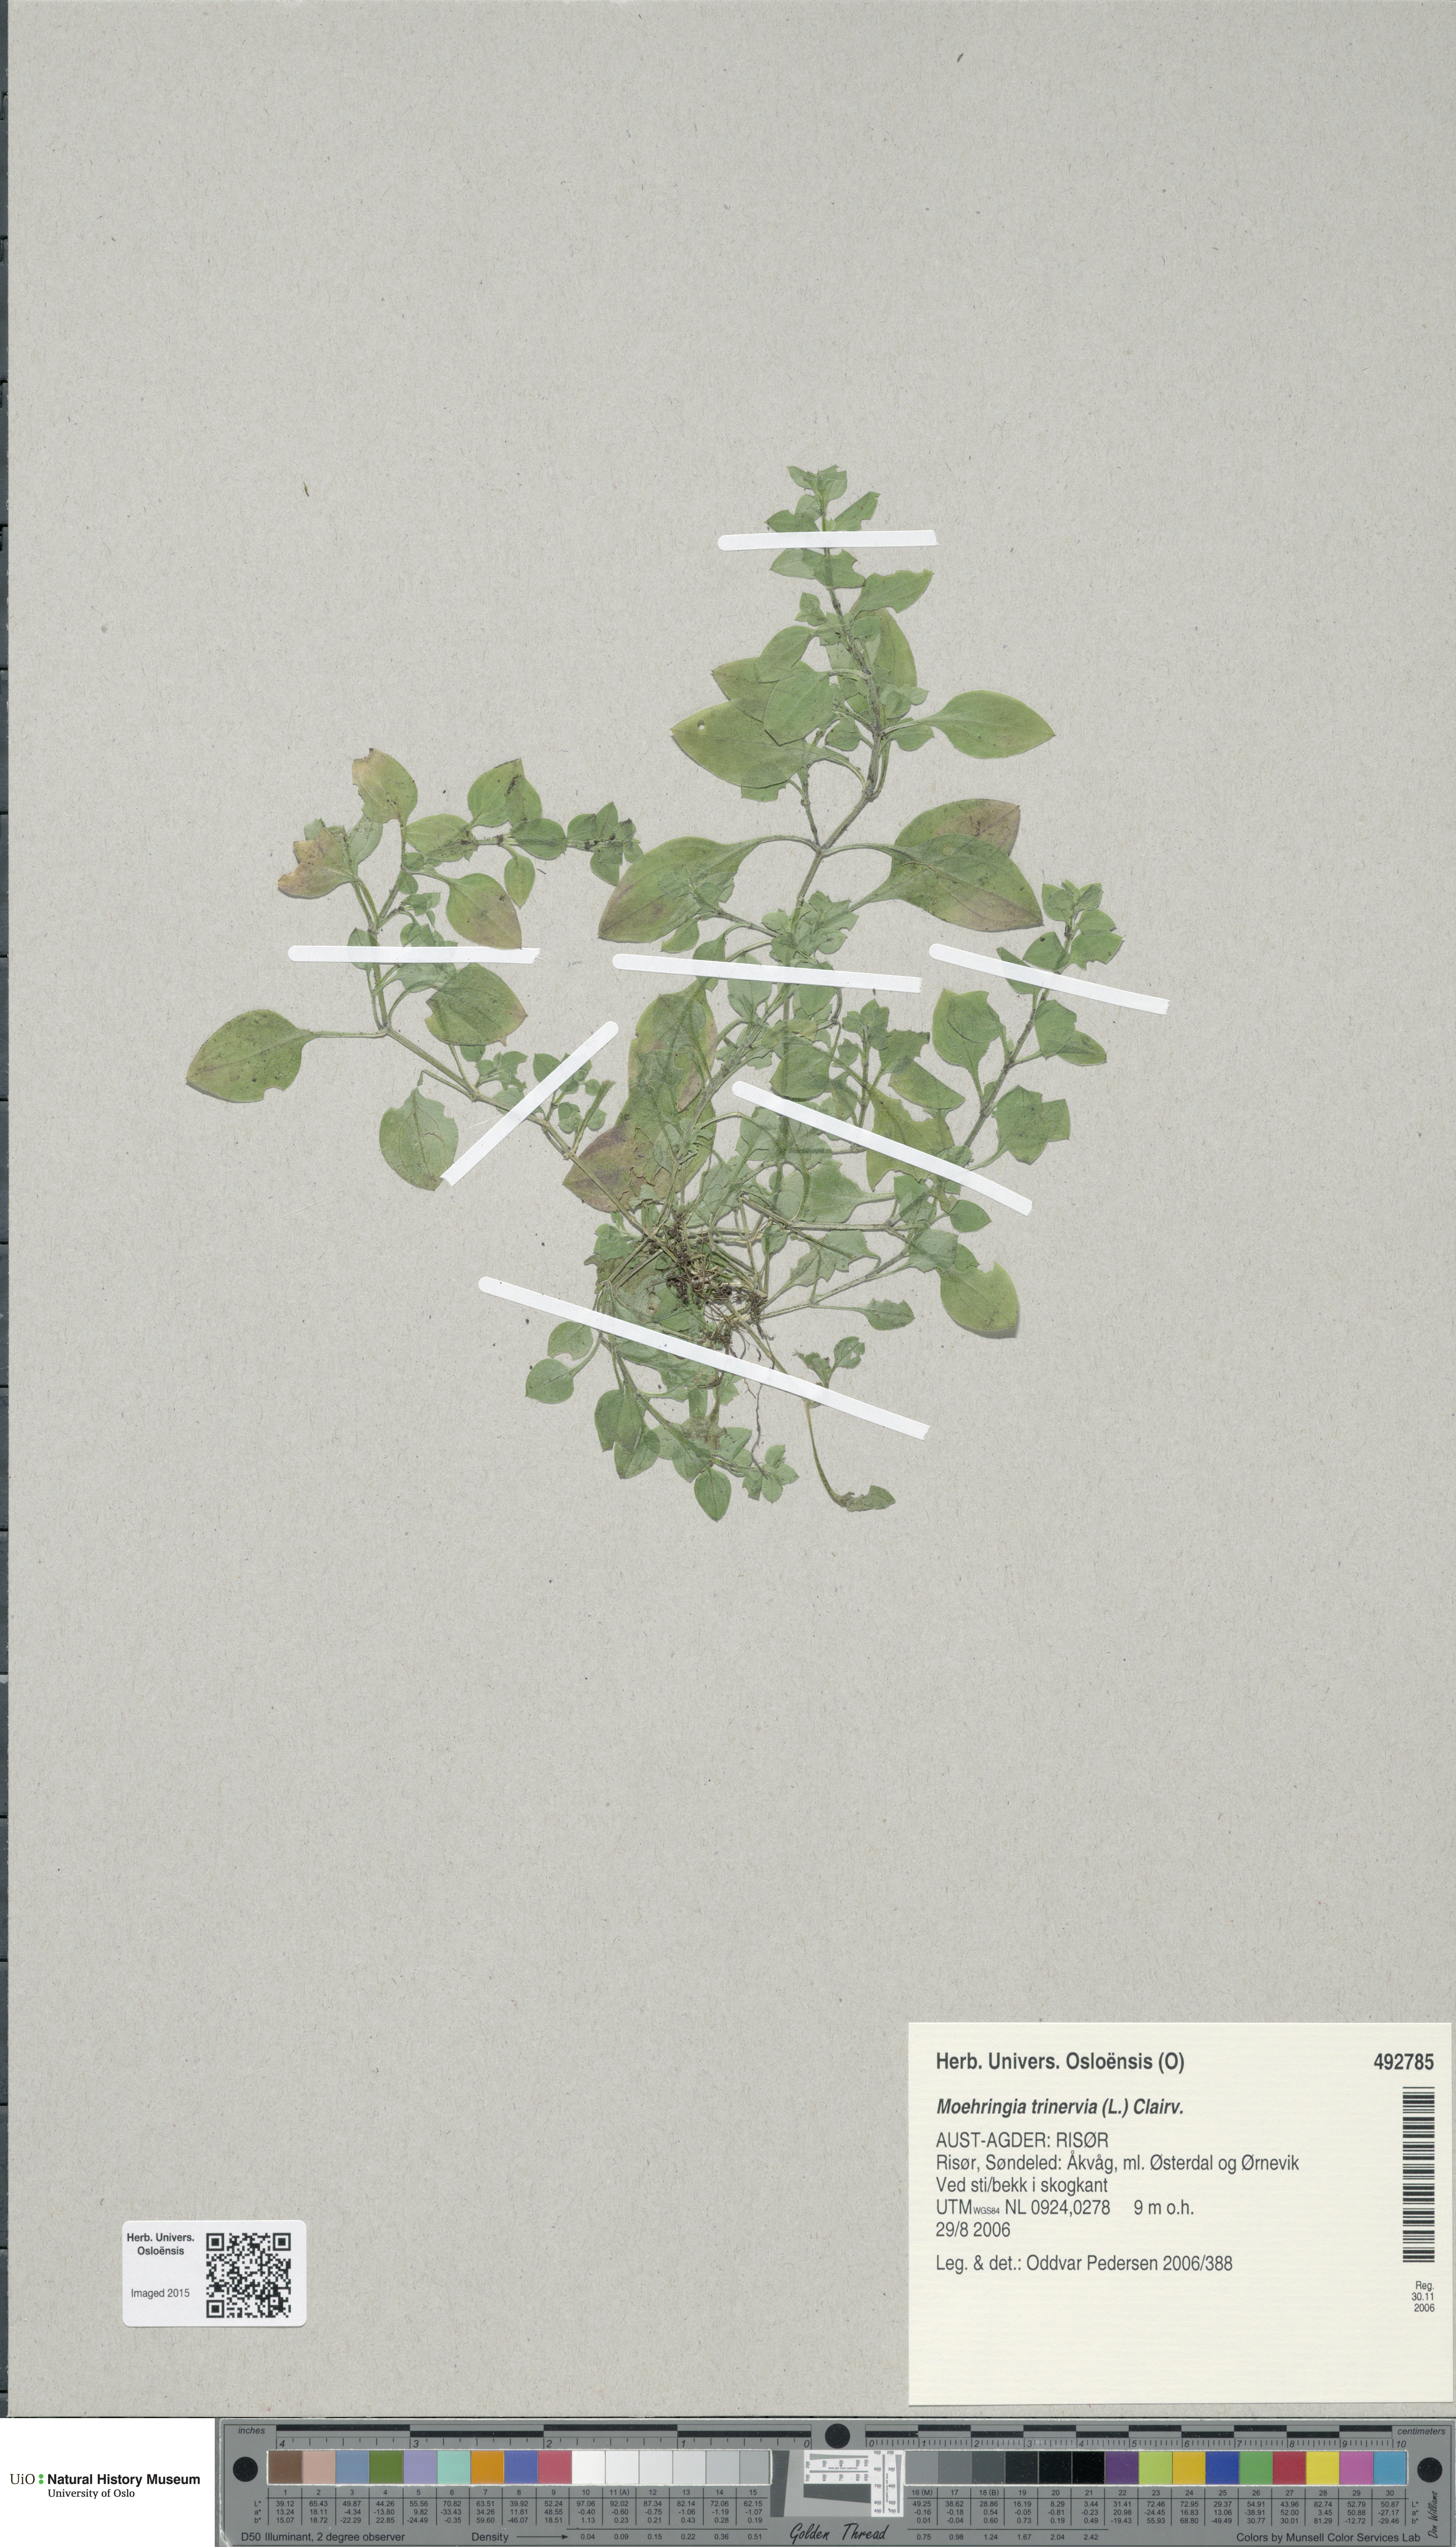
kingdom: Plantae
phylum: Tracheophyta
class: Magnoliopsida
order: Caryophyllales
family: Caryophyllaceae
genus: Moehringia
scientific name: Moehringia trinervia
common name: Three-nerved sandwort
